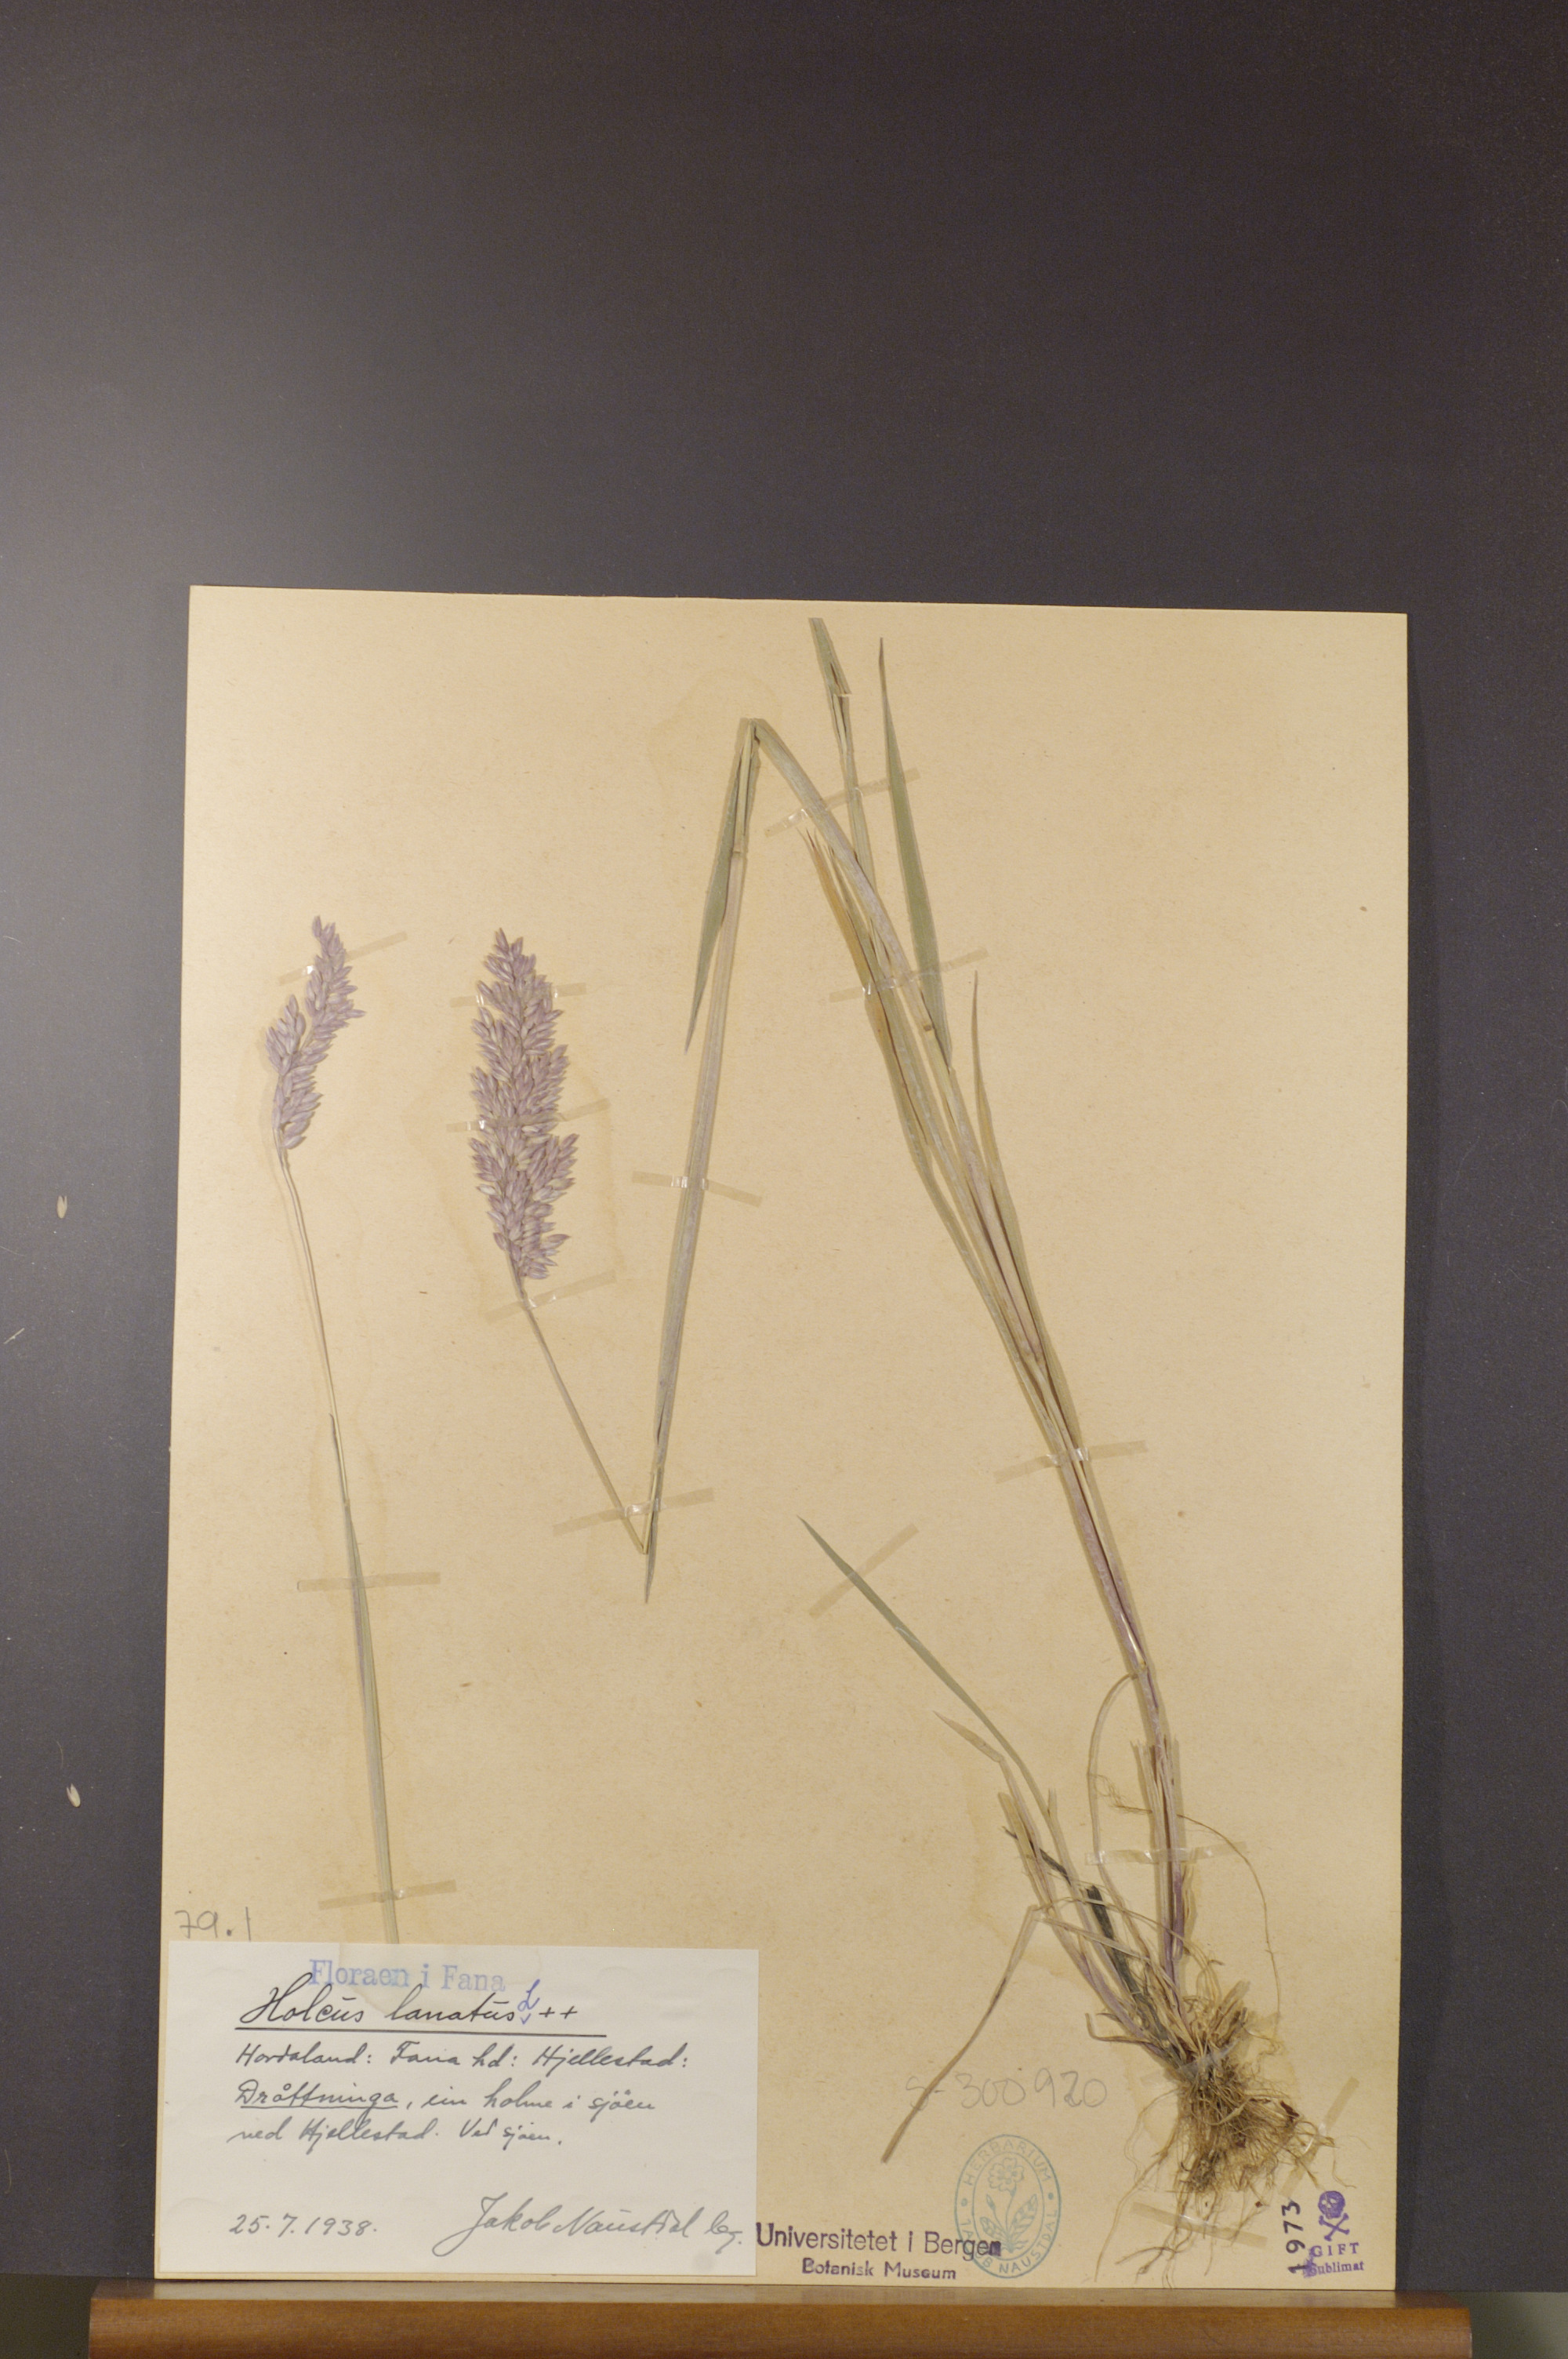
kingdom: Plantae
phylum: Tracheophyta
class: Liliopsida
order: Poales
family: Poaceae
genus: Holcus
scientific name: Holcus lanatus
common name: Yorkshire-fog
